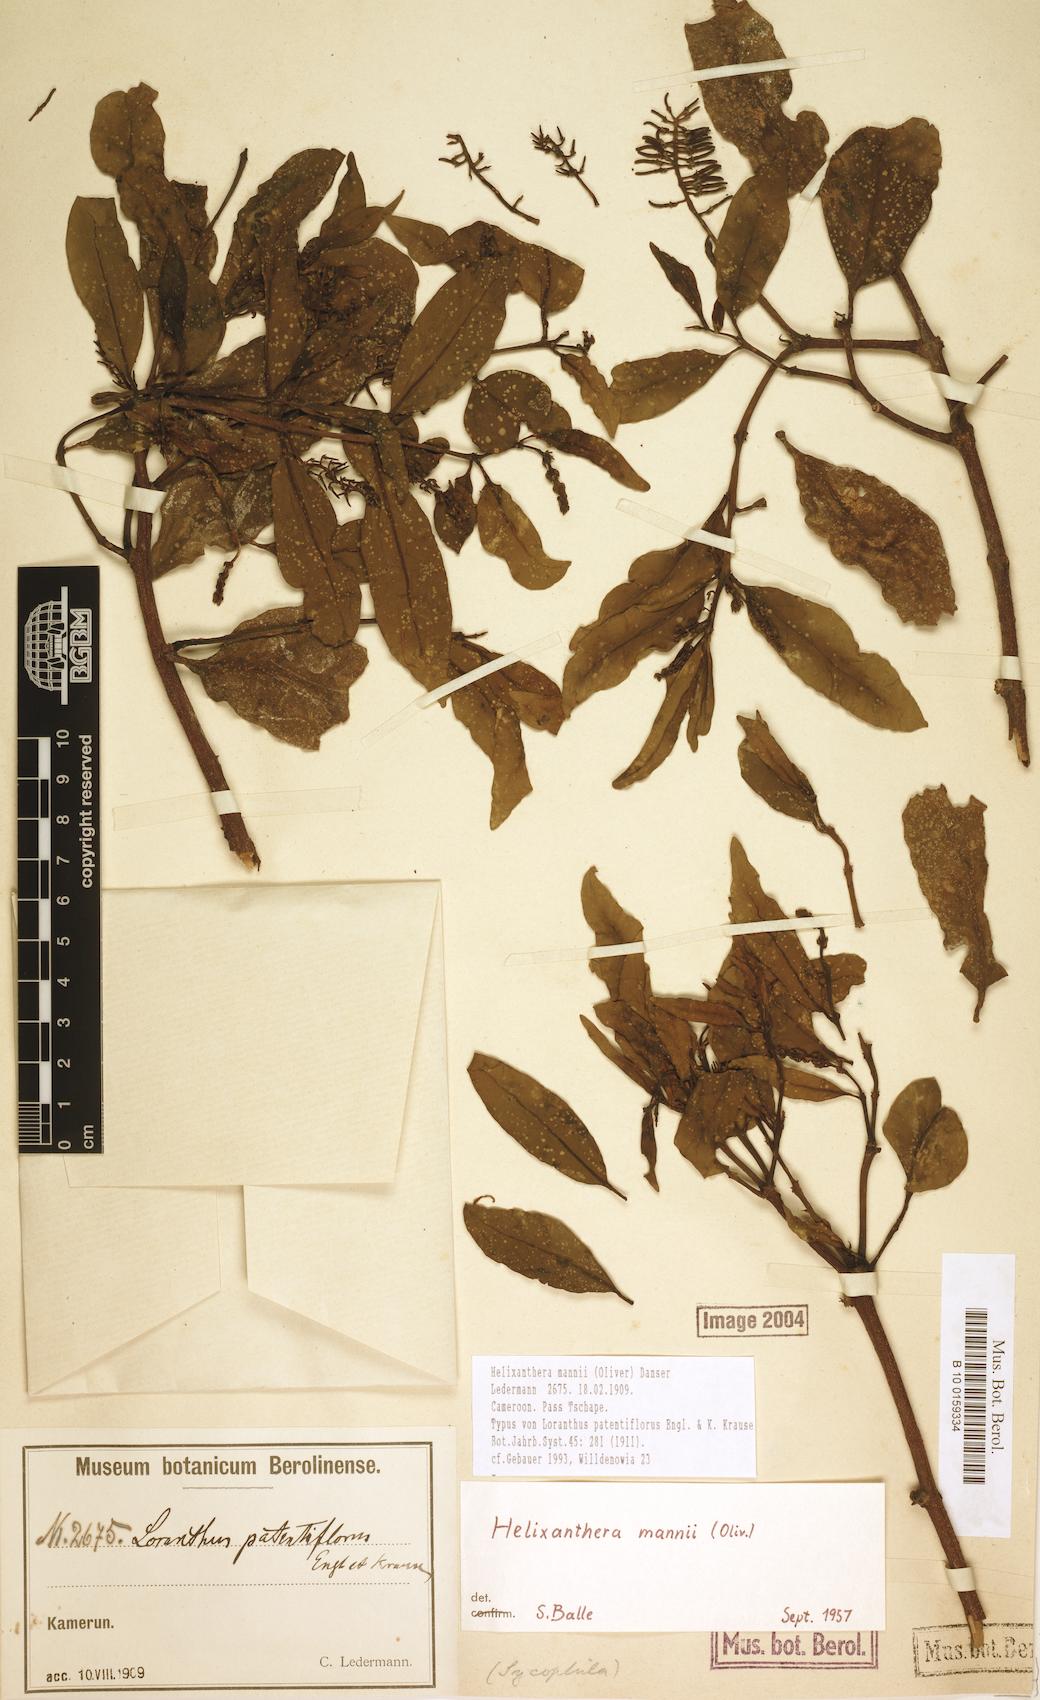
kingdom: Plantae
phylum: Tracheophyta
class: Magnoliopsida
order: Santalales
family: Loranthaceae
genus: Helixanthera
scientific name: Helixanthera mannii
